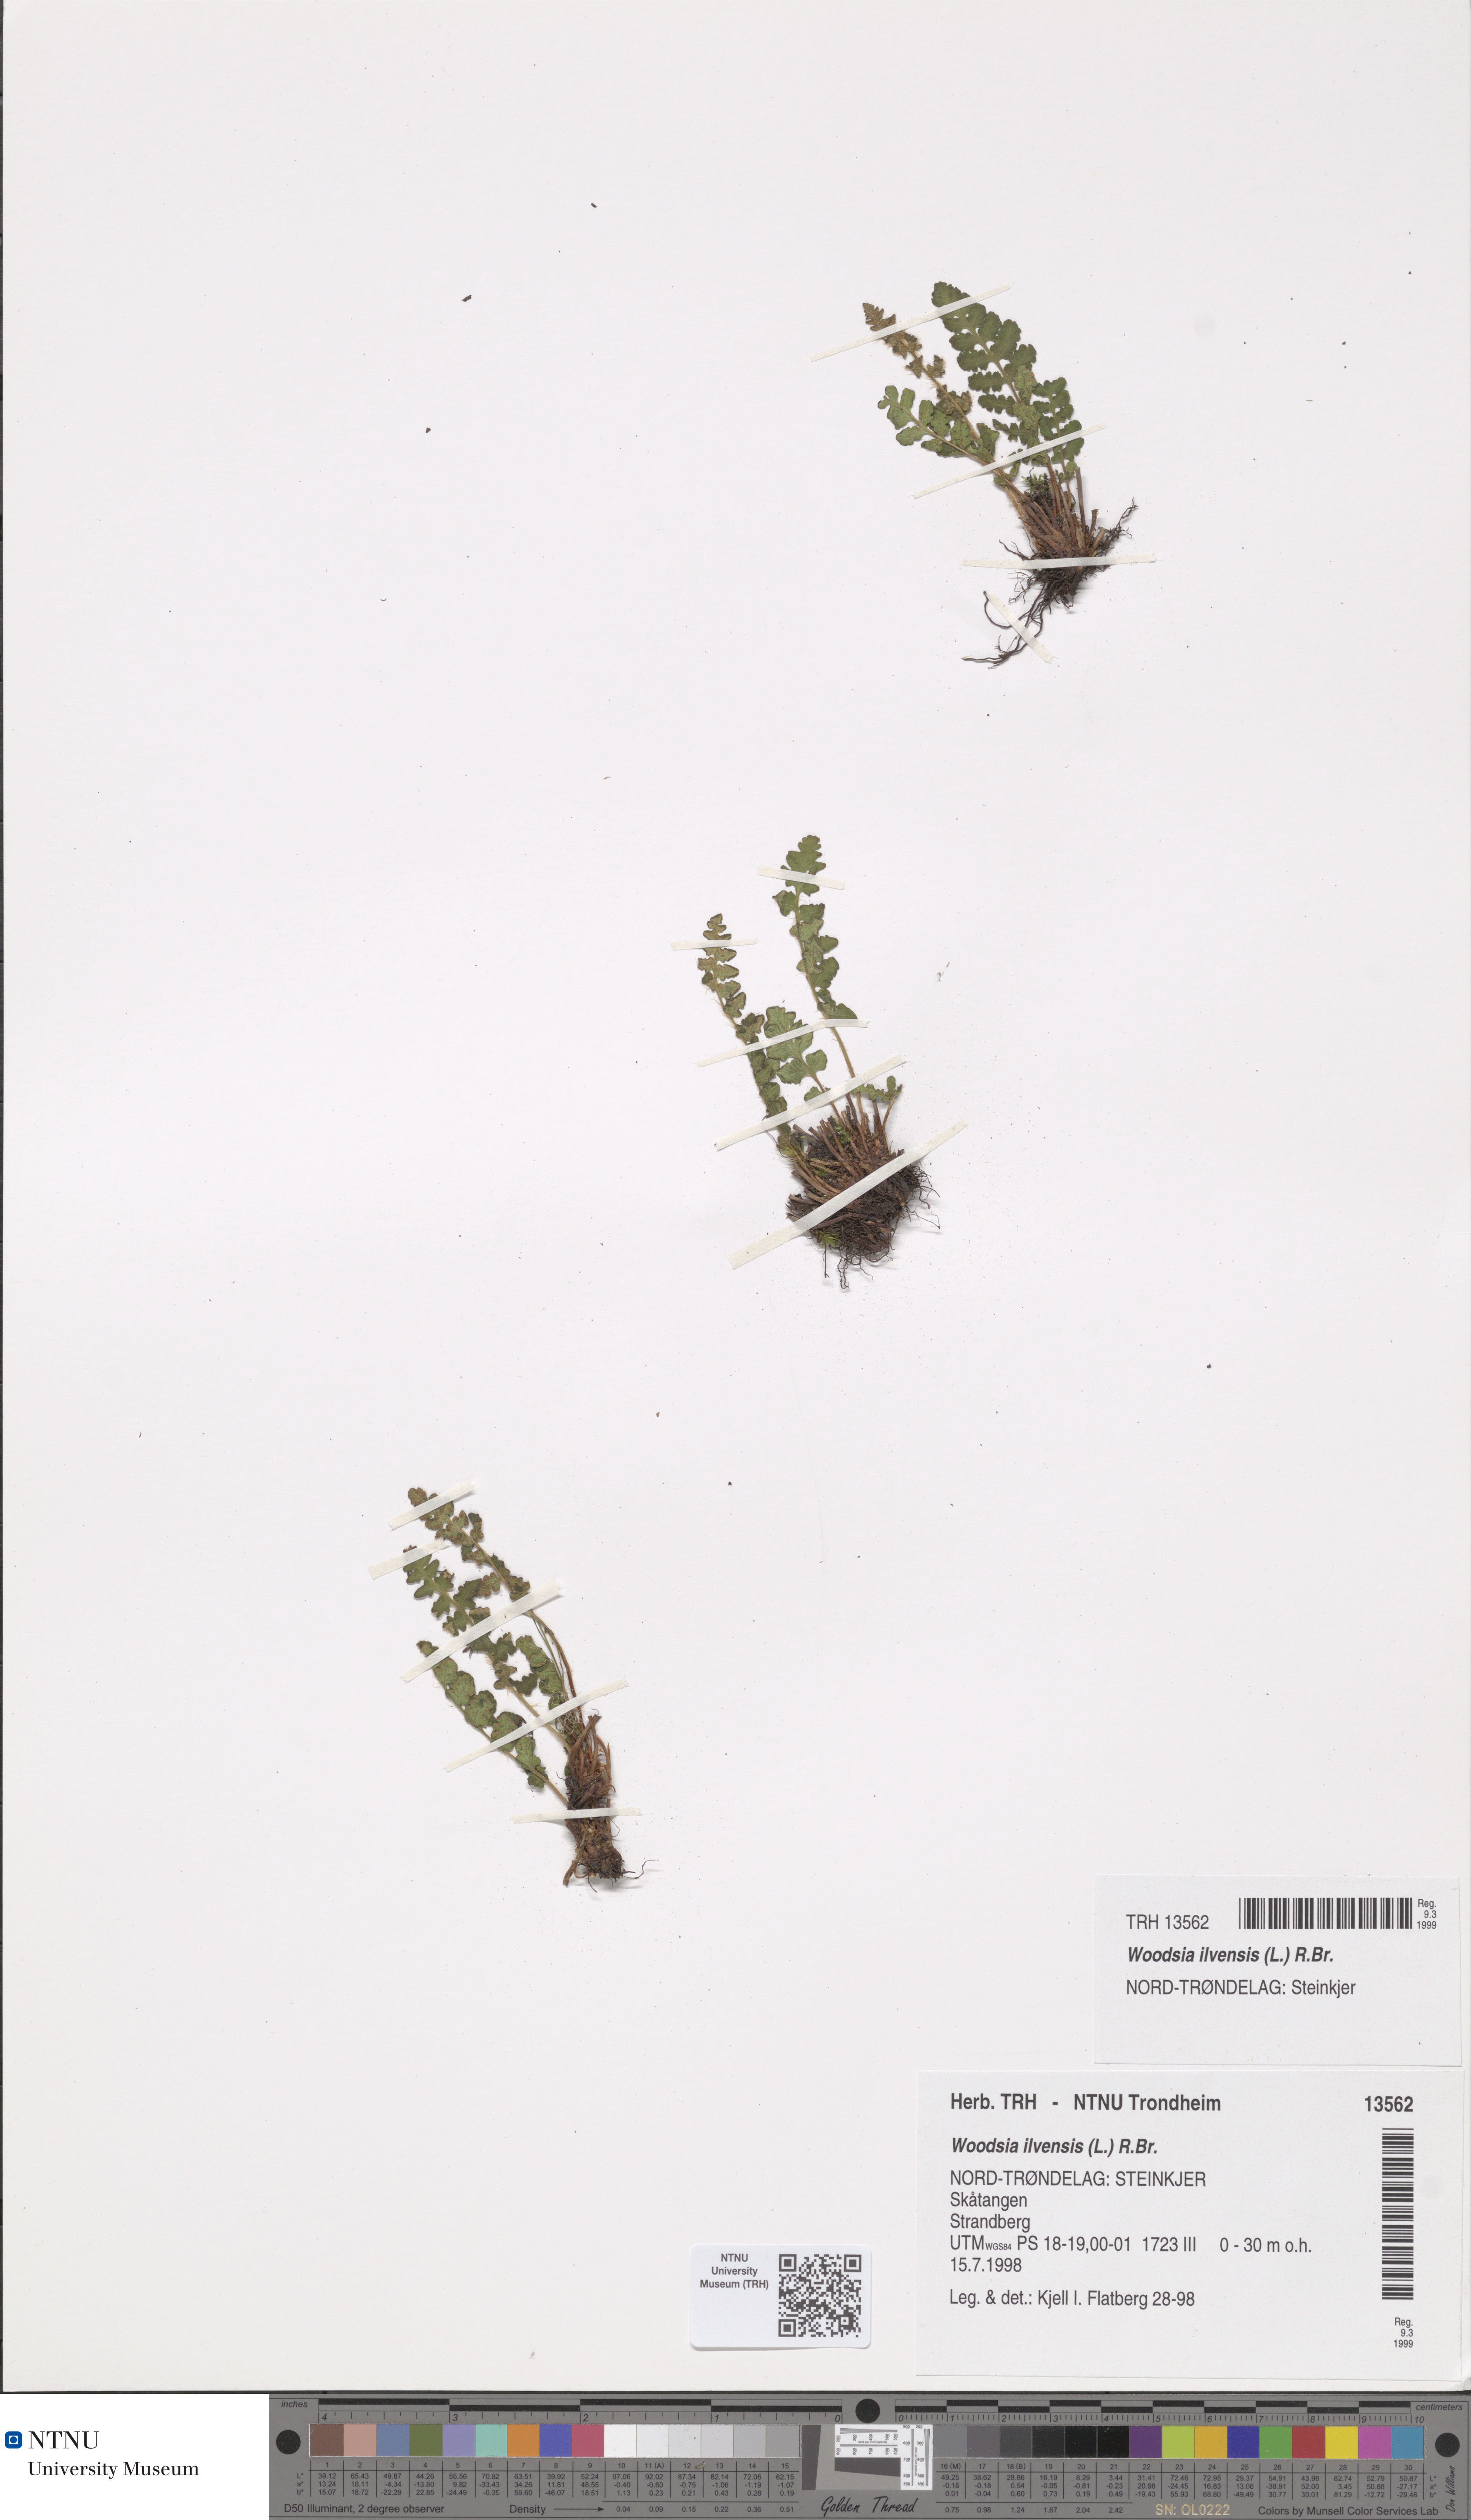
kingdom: Plantae
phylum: Tracheophyta
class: Polypodiopsida
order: Polypodiales
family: Woodsiaceae
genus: Woodsia
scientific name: Woodsia ilvensis
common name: Fragrant woodsia
